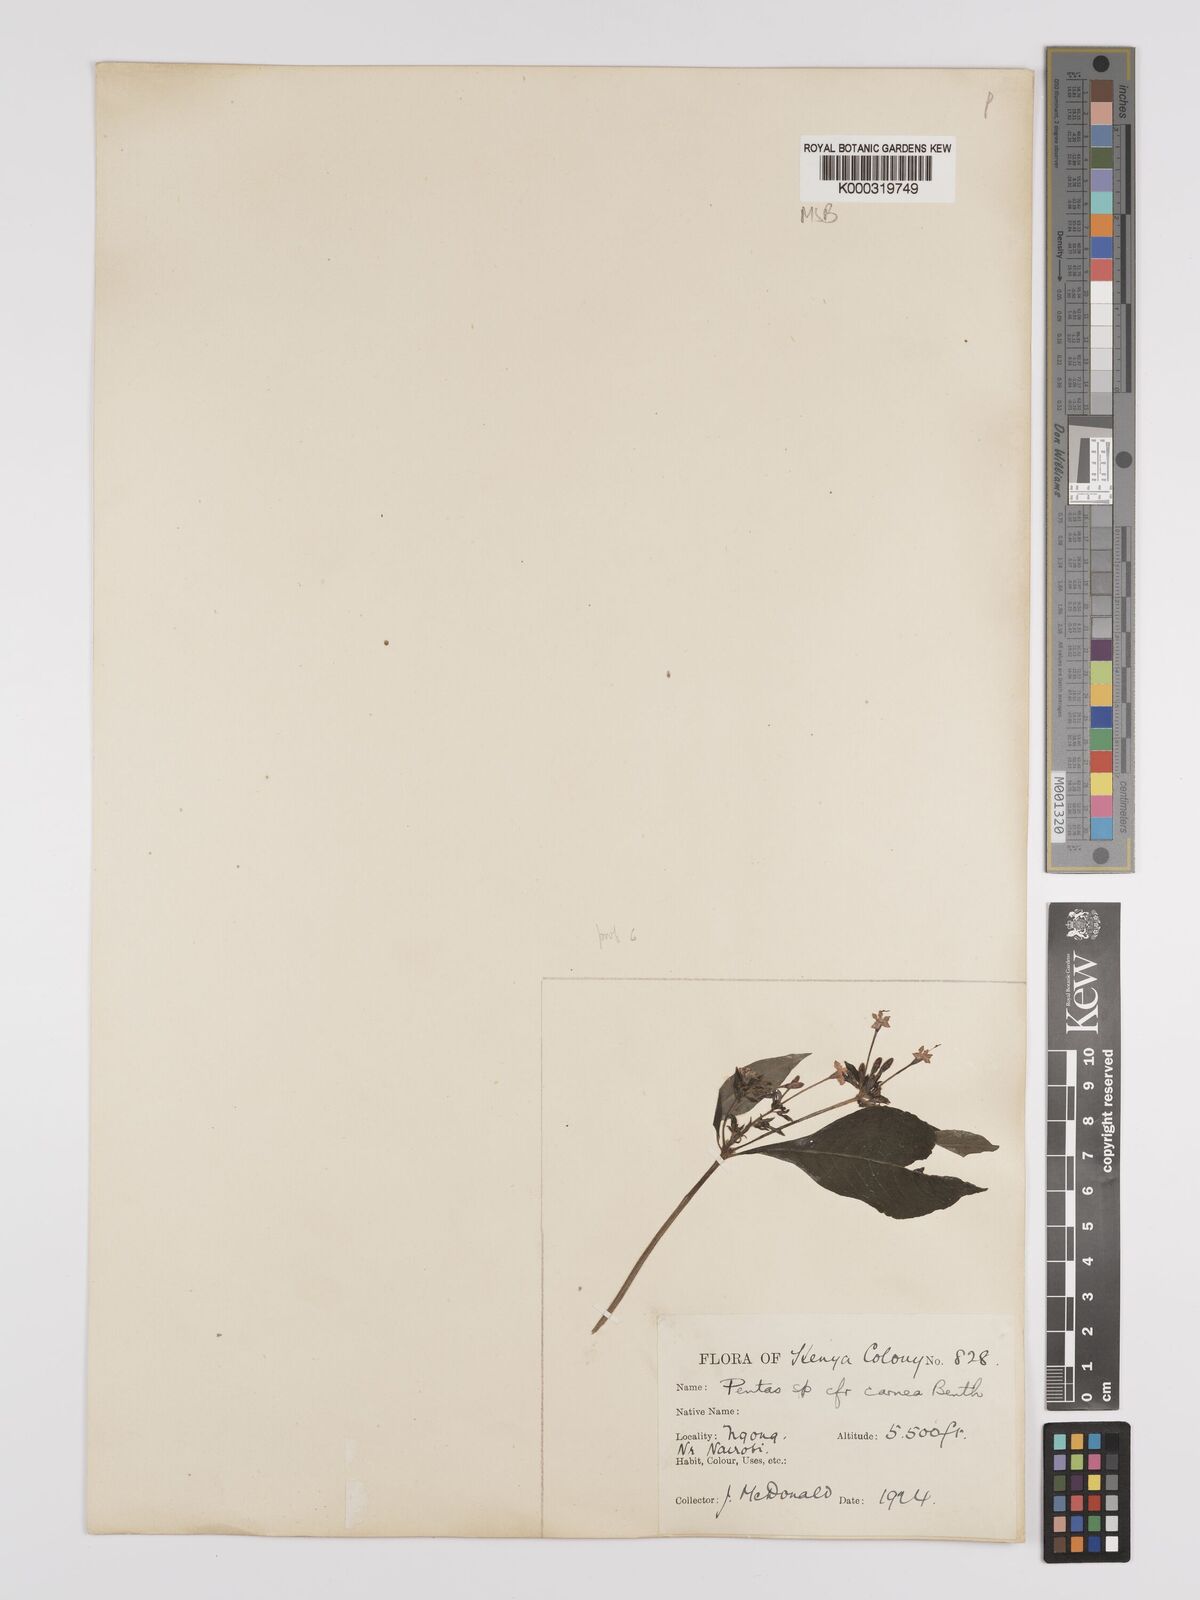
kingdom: Plantae
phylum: Tracheophyta
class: Magnoliopsida
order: Gentianales
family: Rubiaceae
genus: Pentas
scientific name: Pentas lanceolata
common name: Egyptian starcluster
